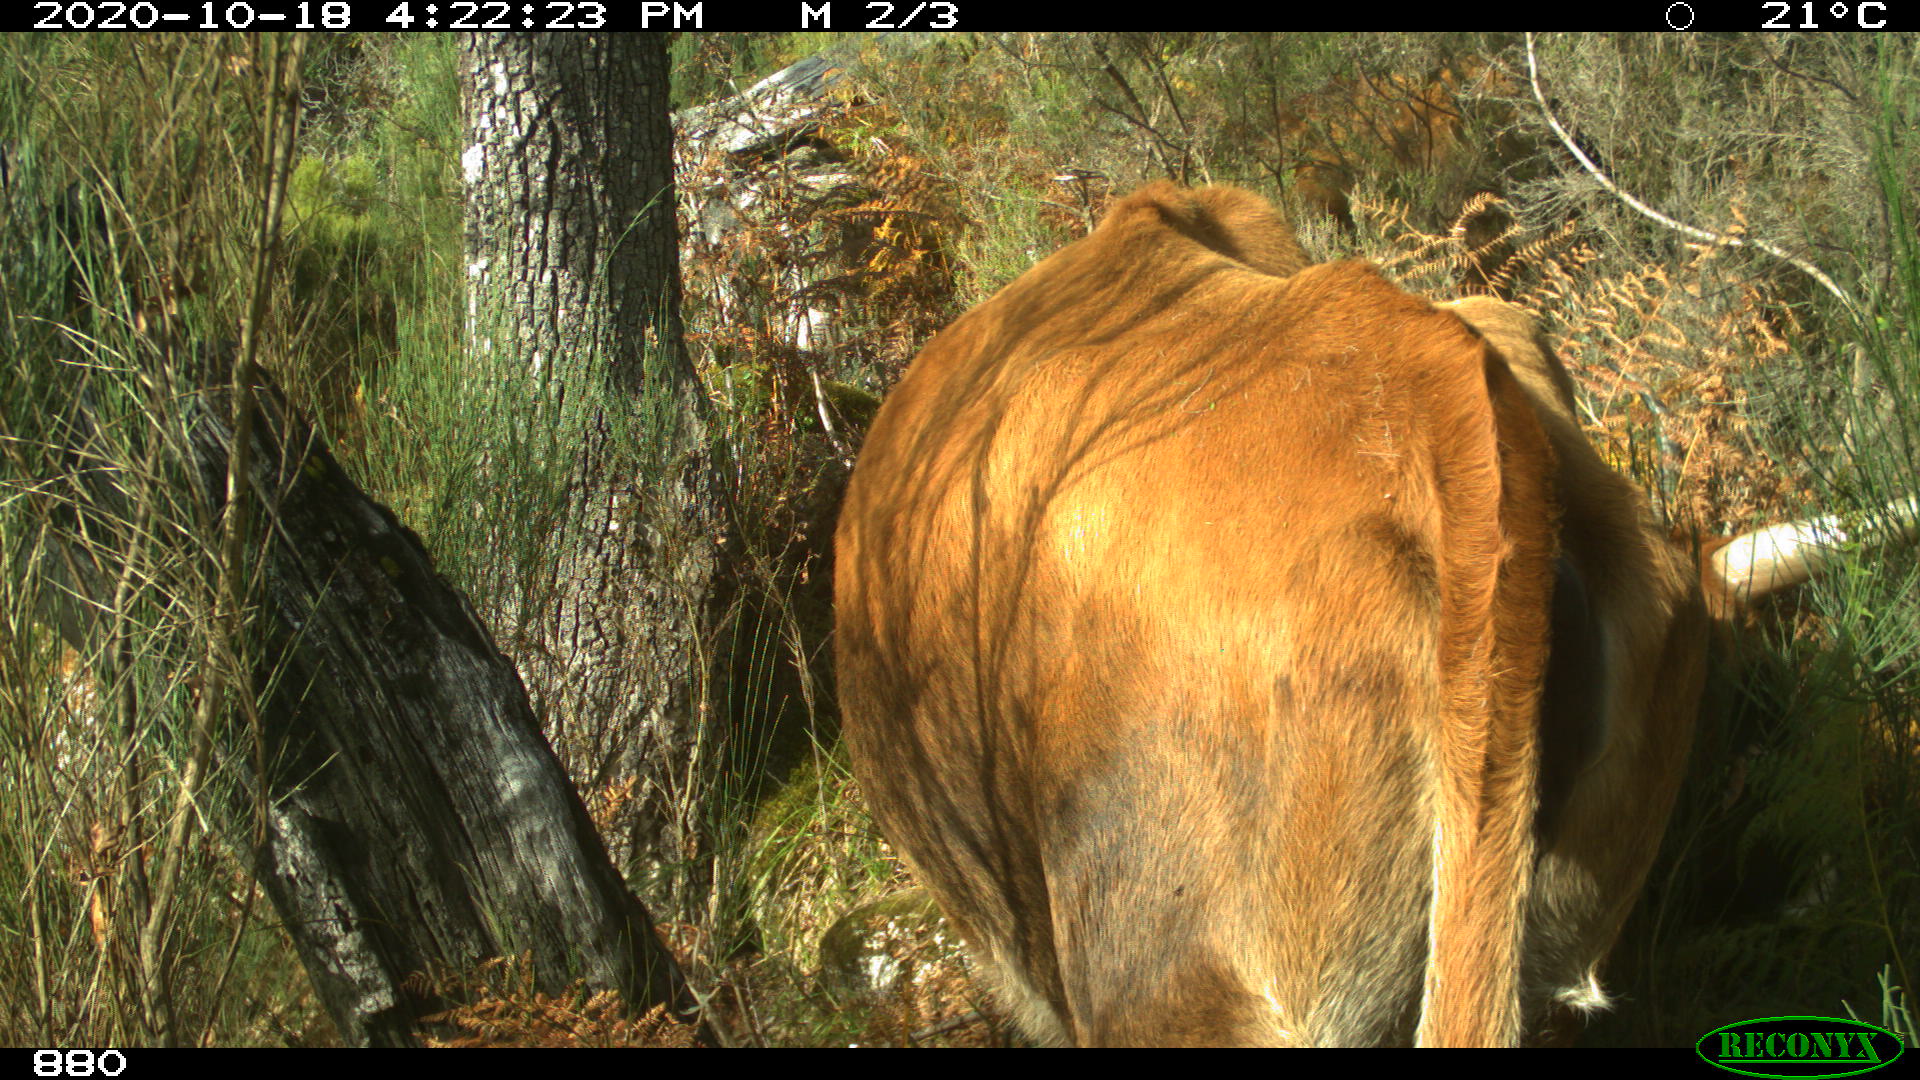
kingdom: Animalia
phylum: Chordata
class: Mammalia
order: Artiodactyla
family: Bovidae
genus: Bos
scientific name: Bos taurus
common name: Domesticated cattle
